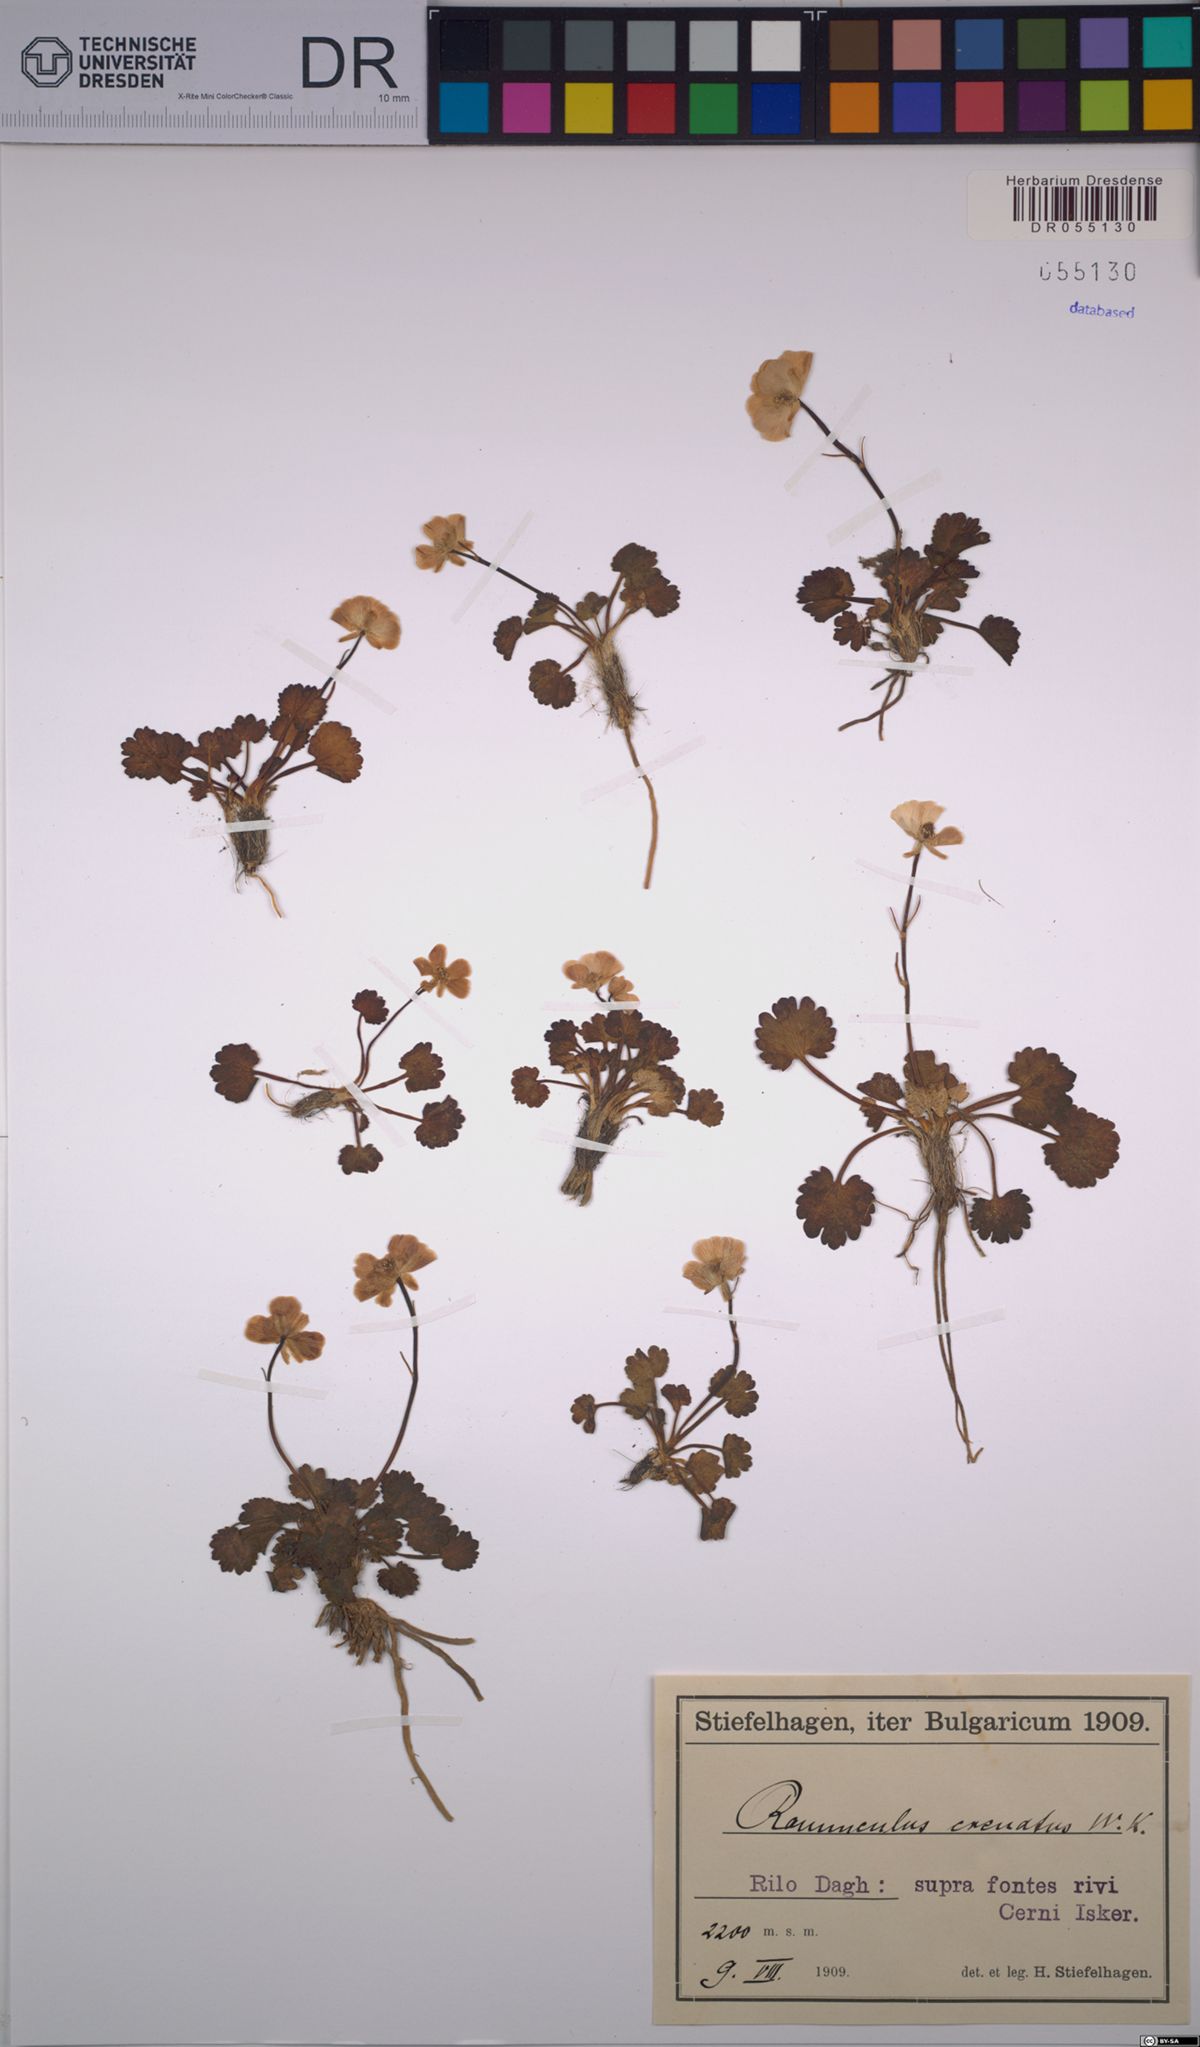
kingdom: Plantae
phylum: Tracheophyta
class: Magnoliopsida
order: Ranunculales
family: Ranunculaceae
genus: Ranunculus
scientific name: Ranunculus crenatus
